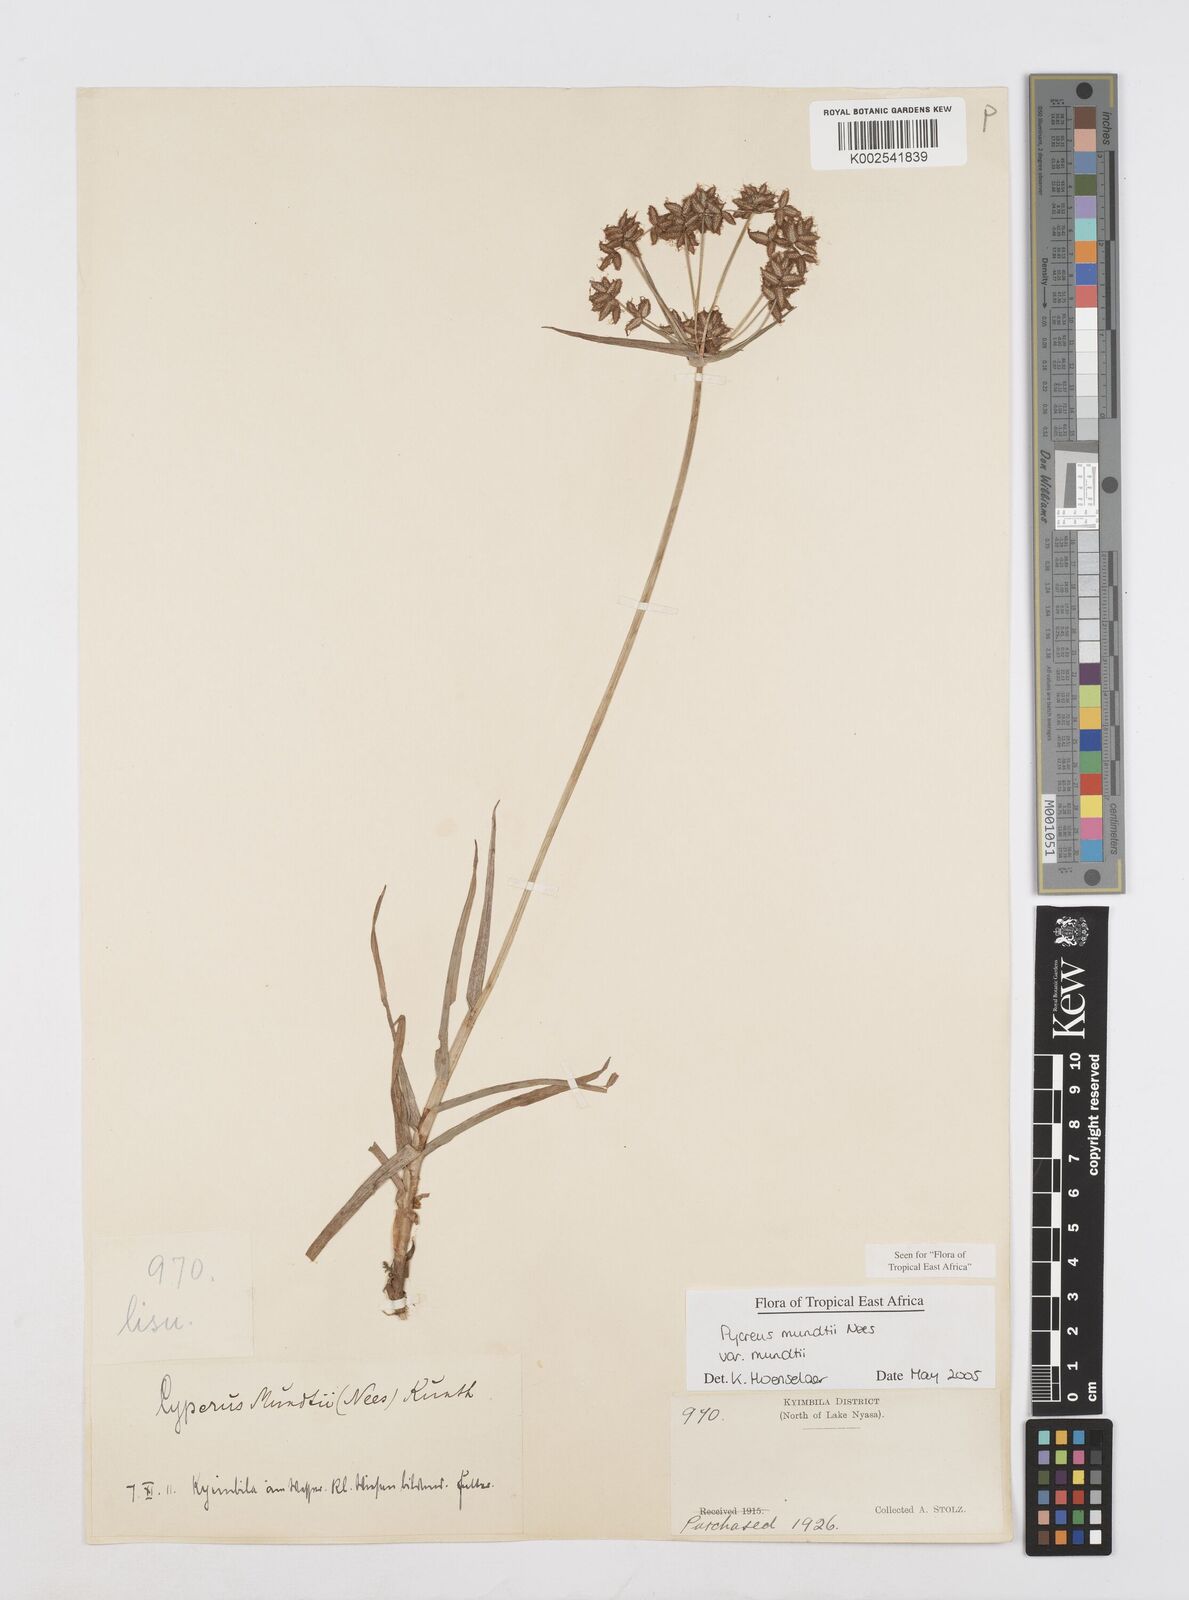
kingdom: Plantae
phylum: Tracheophyta
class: Liliopsida
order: Poales
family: Cyperaceae
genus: Cyperus
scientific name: Cyperus mundii
